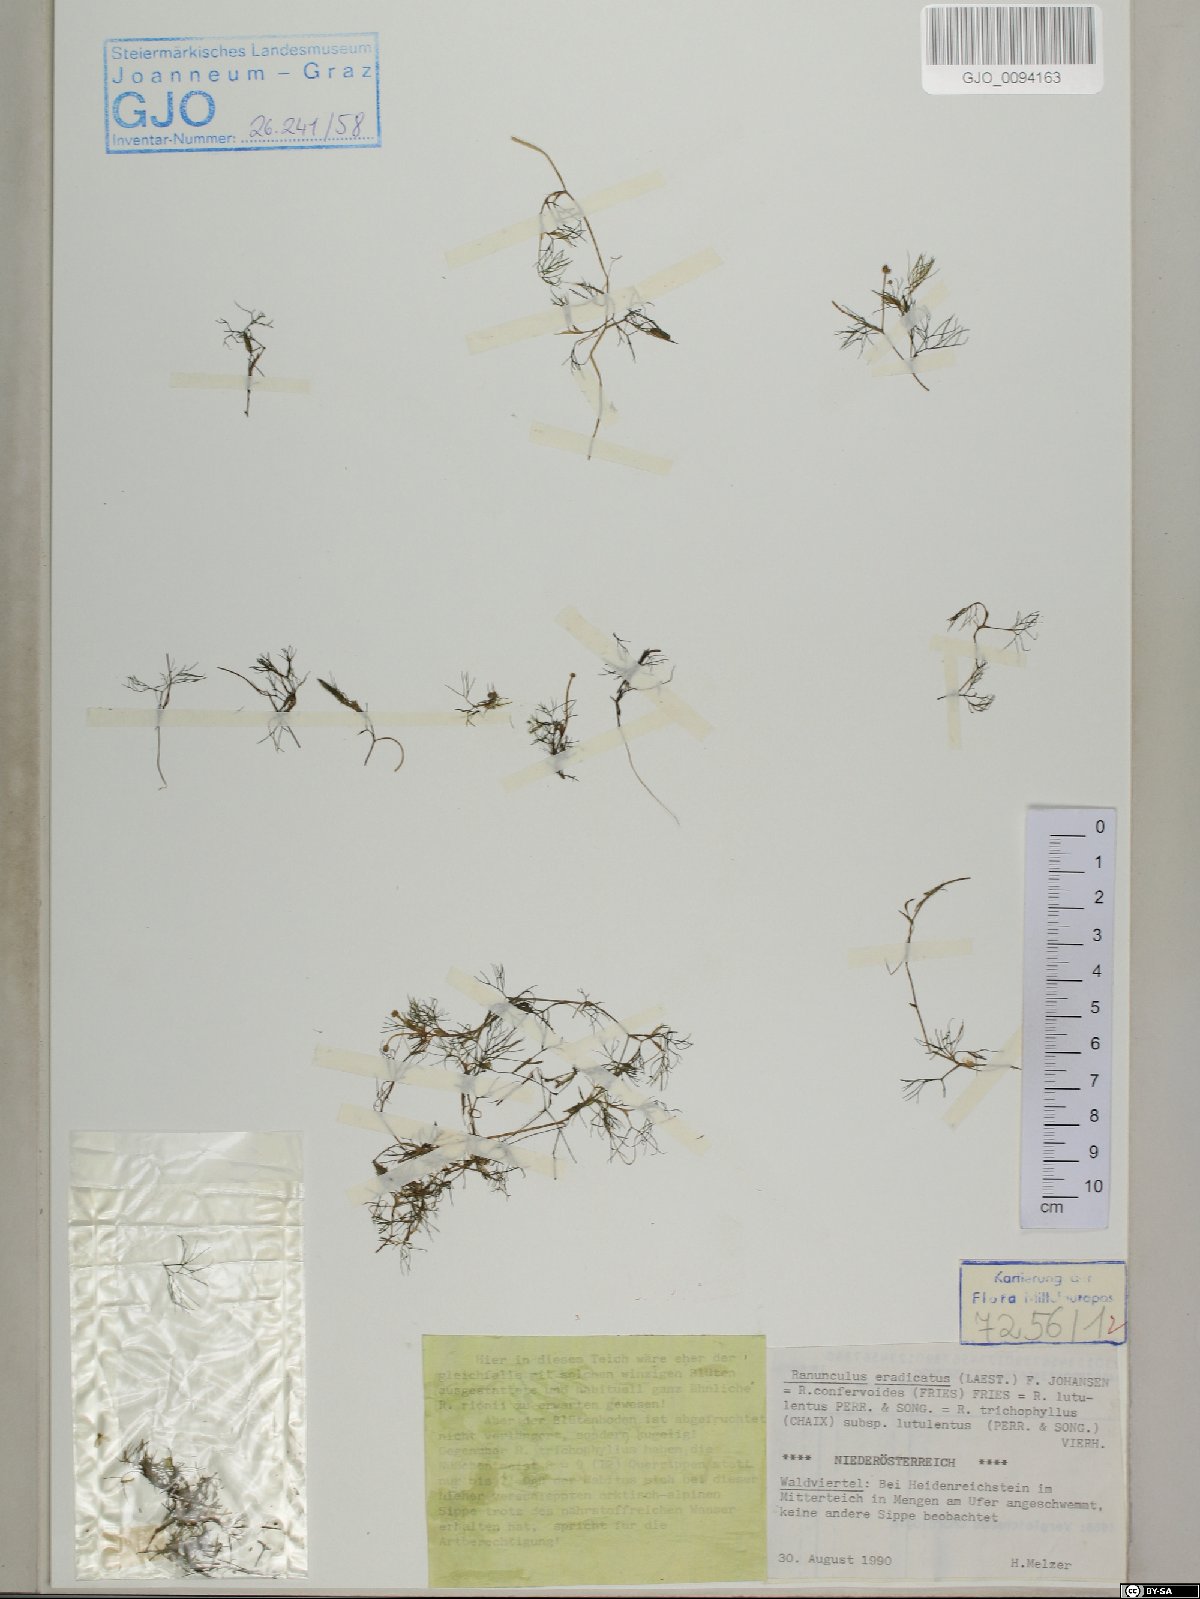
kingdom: Plantae
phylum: Tracheophyta
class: Magnoliopsida
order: Ranunculales
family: Ranunculaceae
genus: Ranunculus
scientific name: Ranunculus confervoides
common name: Delicate buttercup
